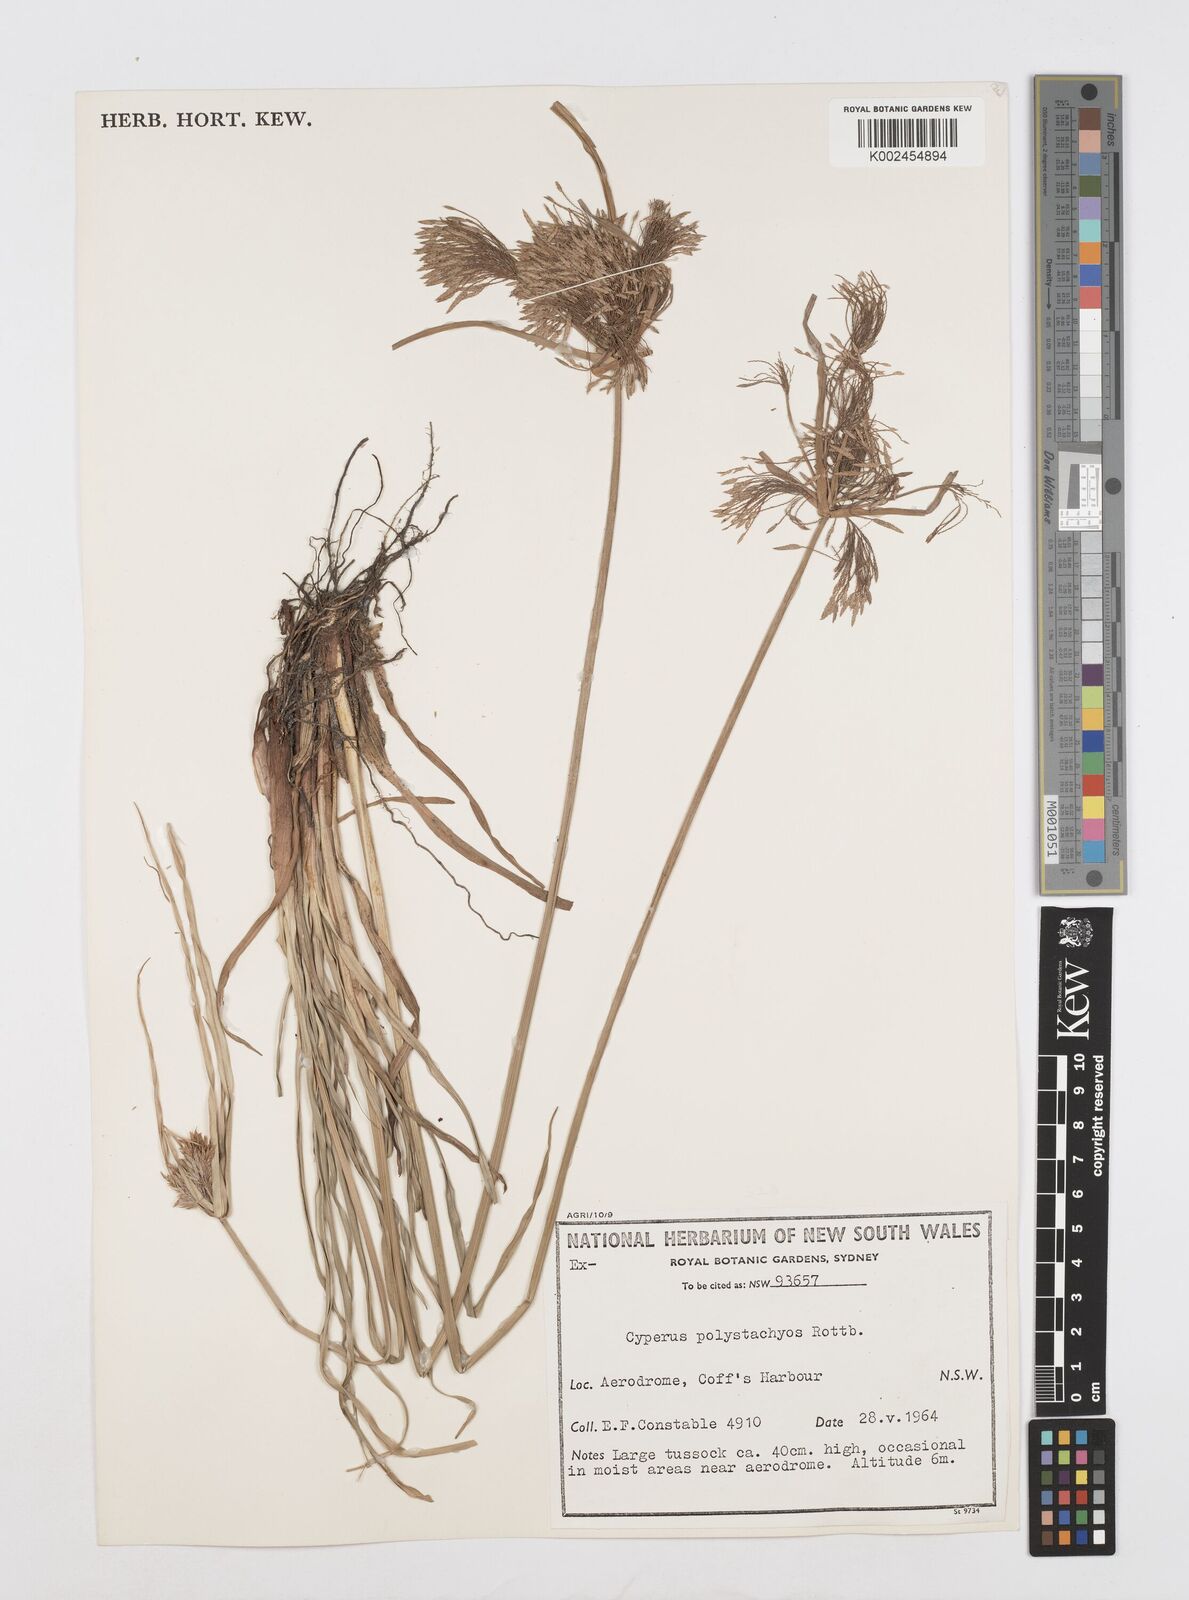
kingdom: Plantae
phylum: Tracheophyta
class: Liliopsida
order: Poales
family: Cyperaceae
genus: Cyperus
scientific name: Cyperus polystachyos
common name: Bunchy flat sedge
